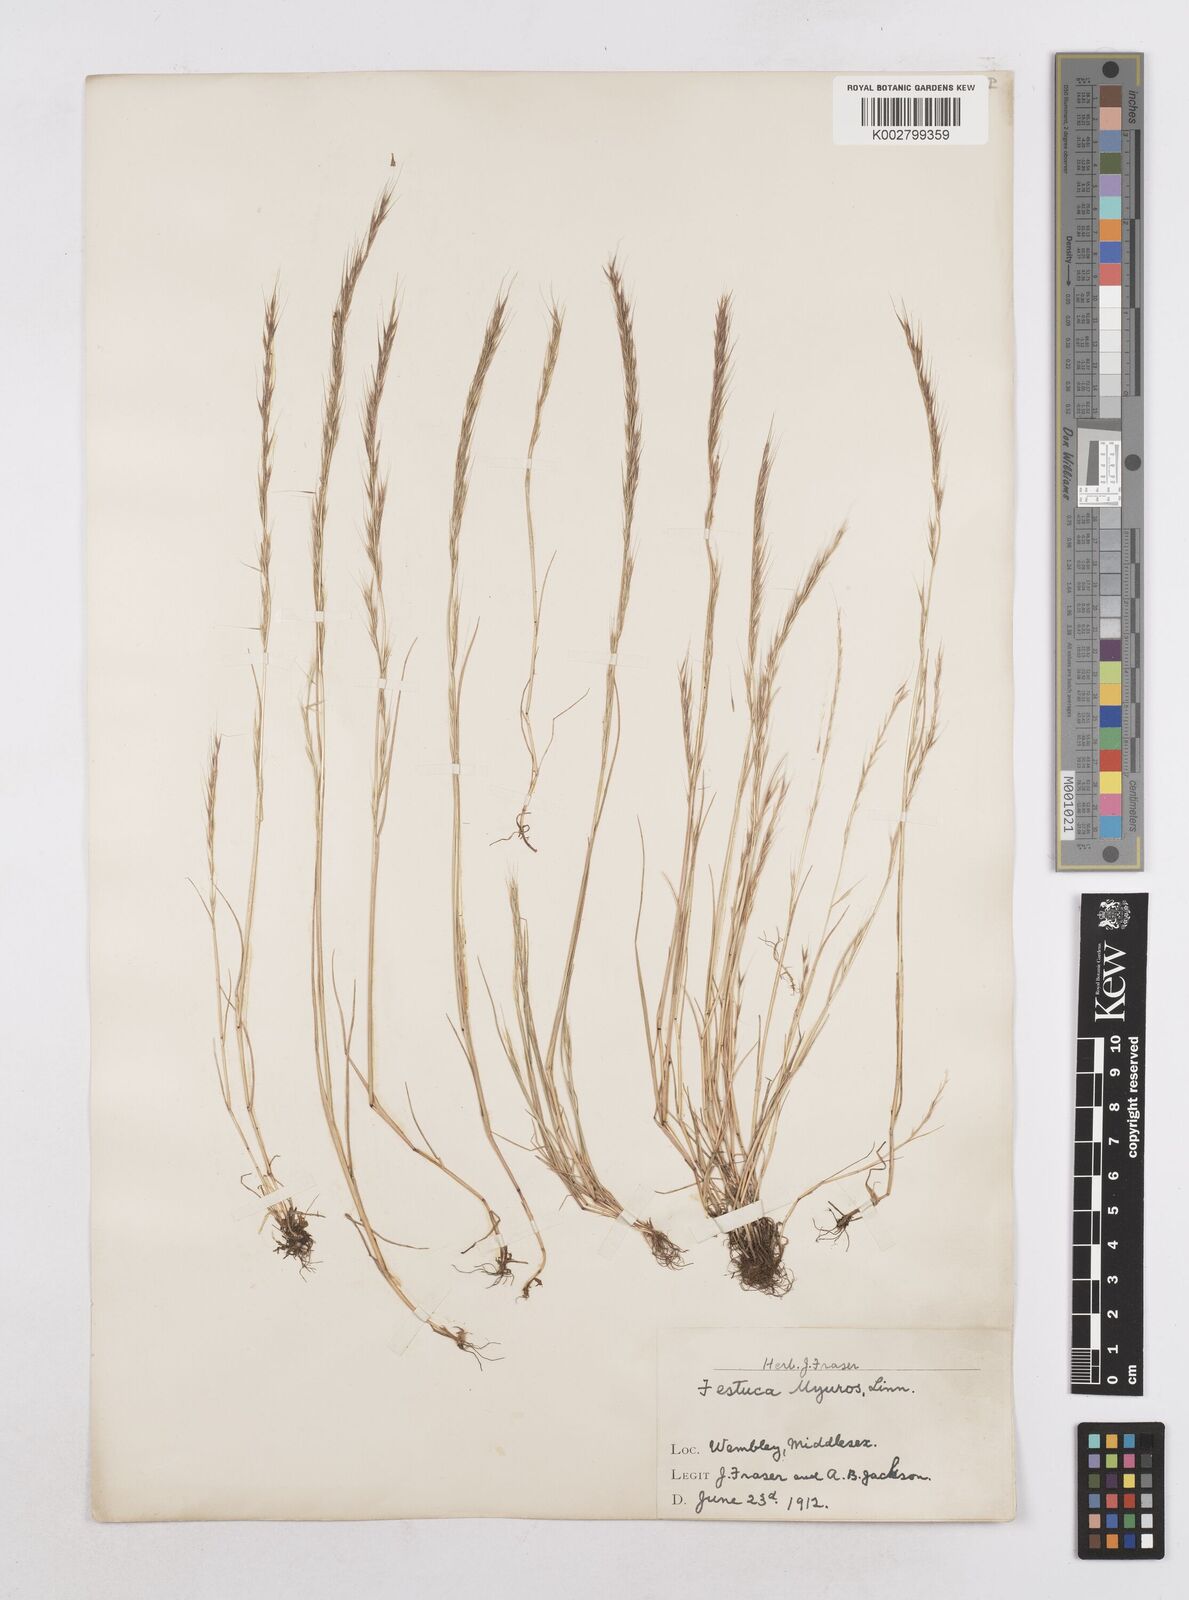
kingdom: Plantae
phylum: Tracheophyta
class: Liliopsida
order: Poales
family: Poaceae
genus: Festuca
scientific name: Festuca myuros
